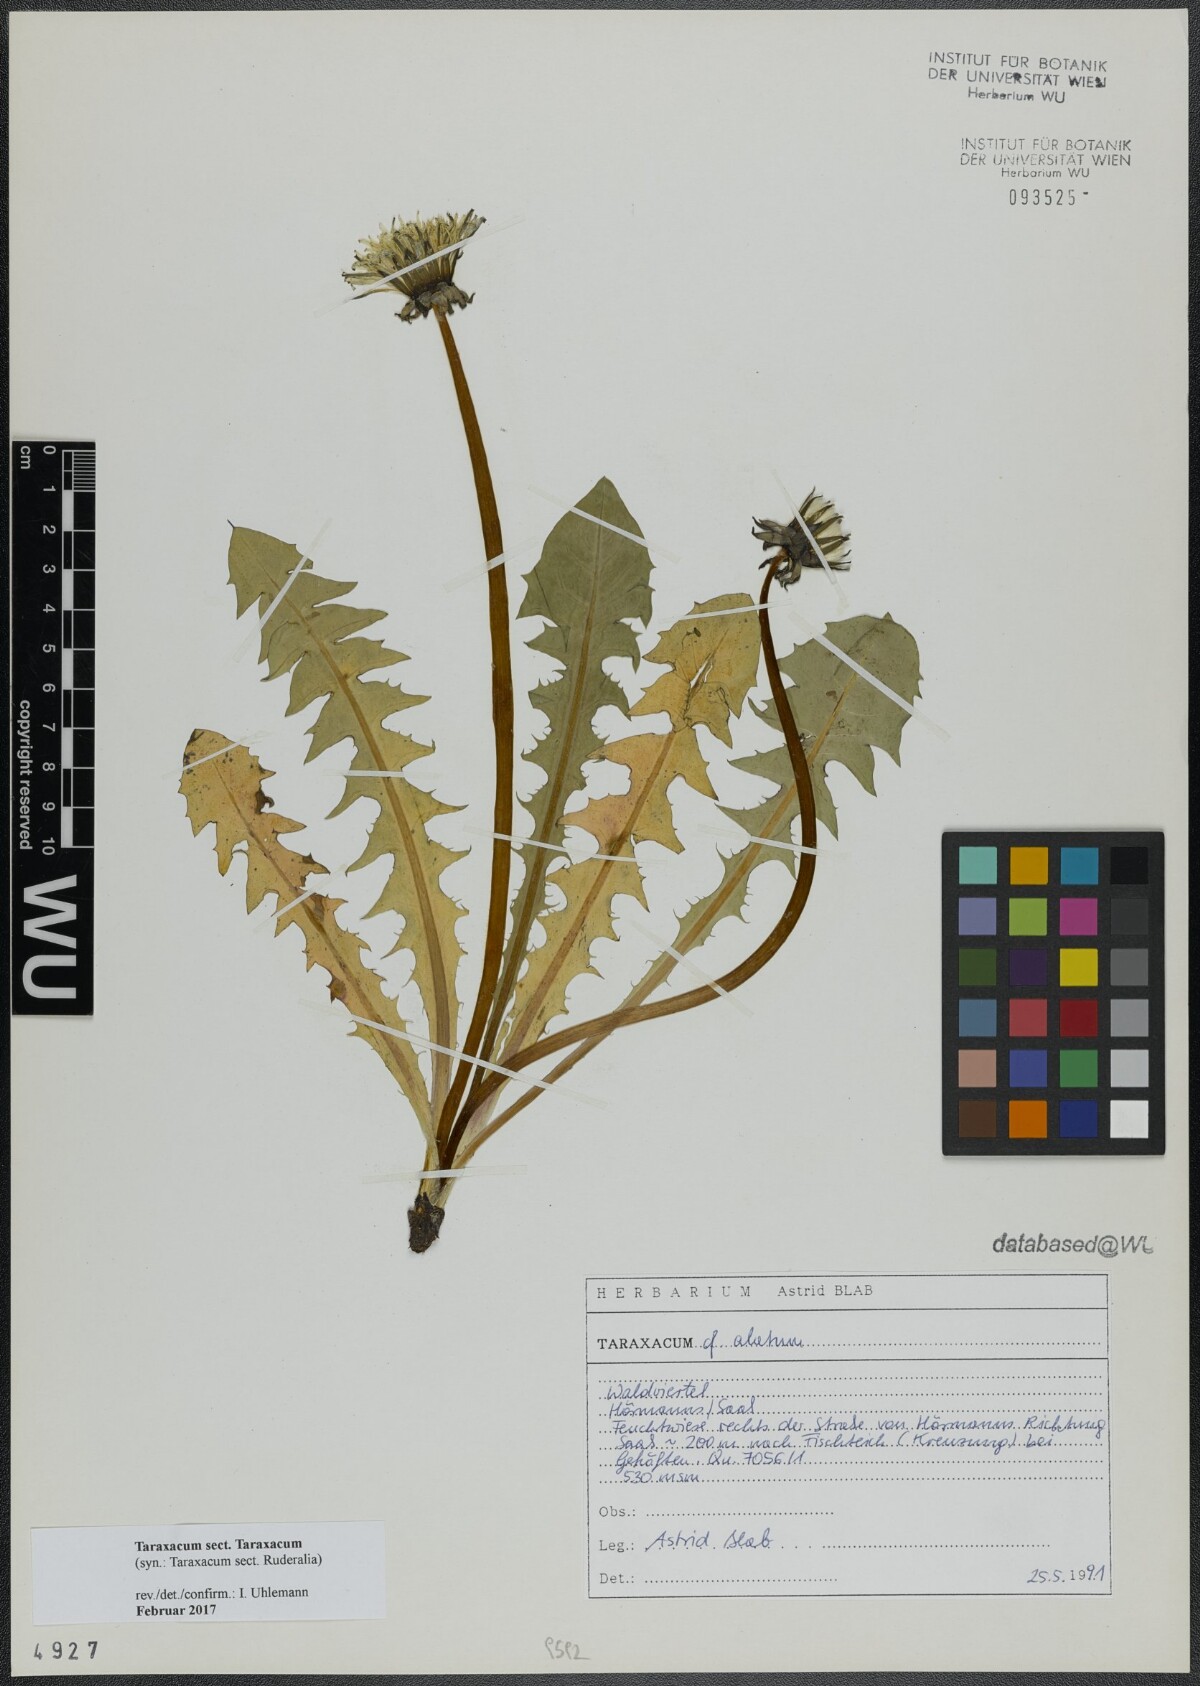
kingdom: Plantae
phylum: Tracheophyta
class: Magnoliopsida
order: Asterales
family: Asteraceae
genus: Taraxacum
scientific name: Taraxacum
